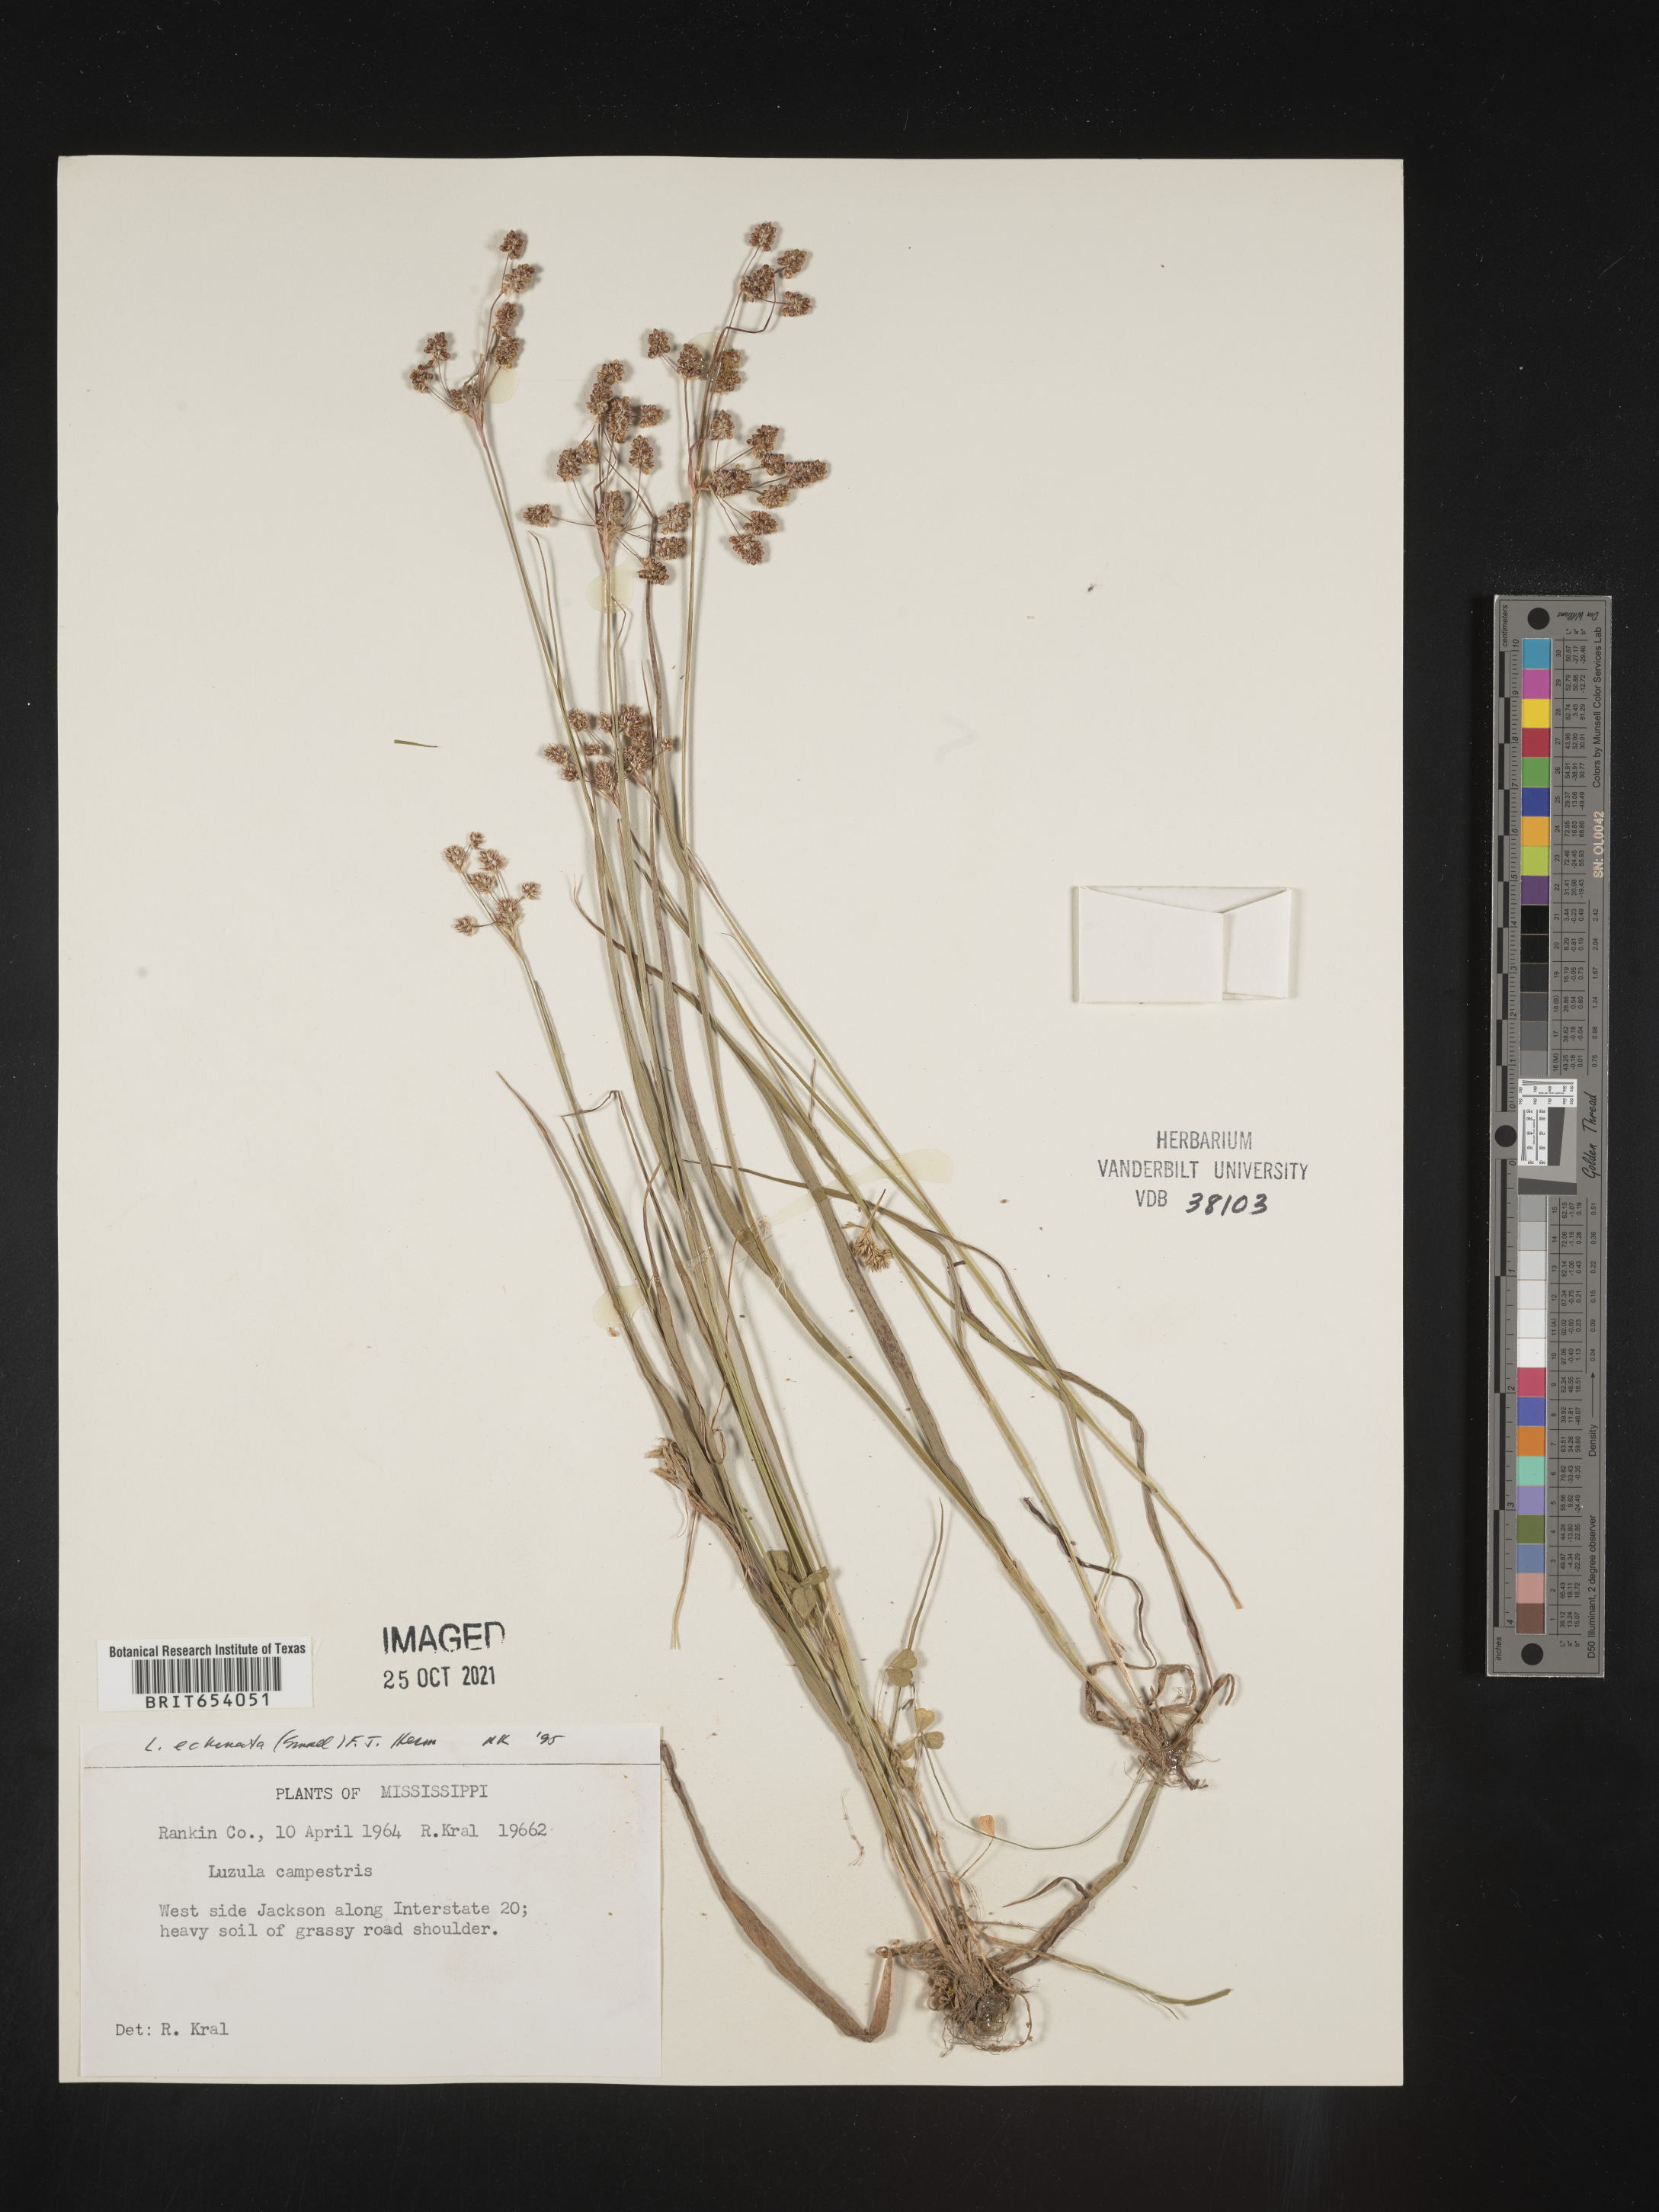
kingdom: Plantae
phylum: Tracheophyta
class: Liliopsida
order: Poales
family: Juncaceae
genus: Luzula
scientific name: Luzula echinata
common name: Hedgehog woodrush
